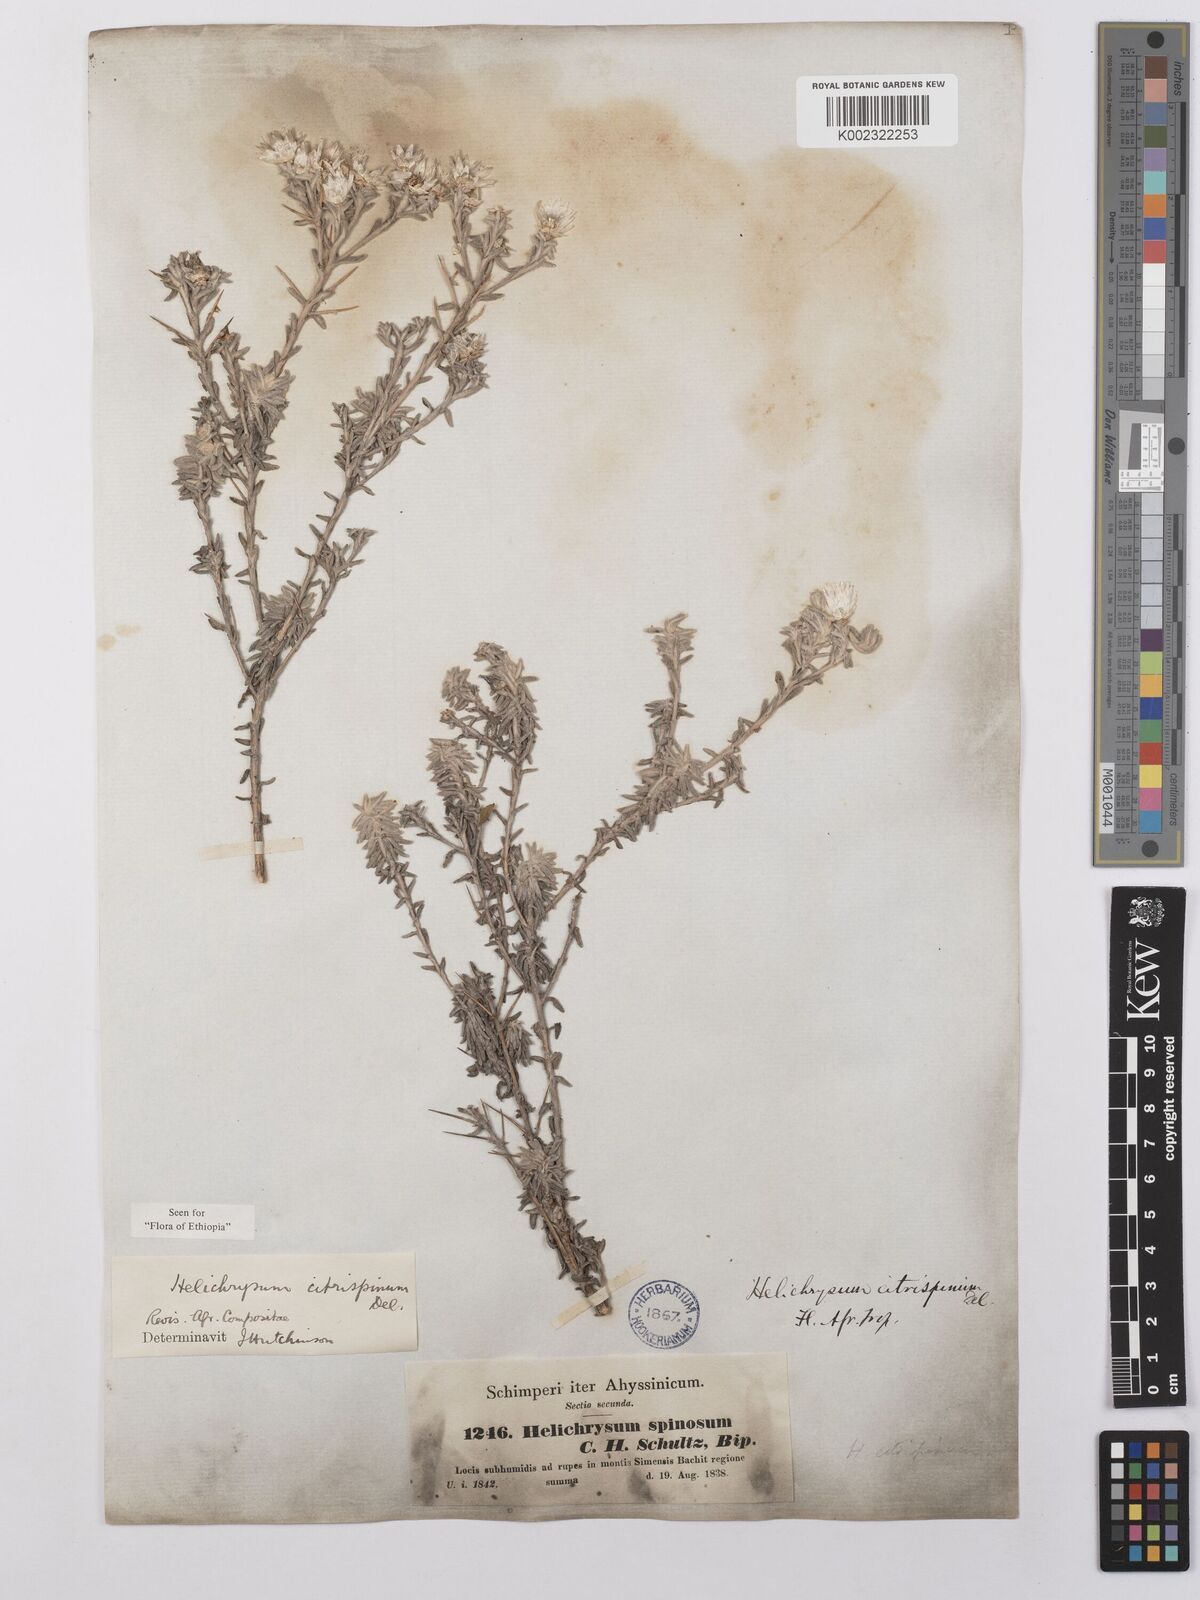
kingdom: Plantae
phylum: Tracheophyta
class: Magnoliopsida
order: Asterales
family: Asteraceae
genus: Helichrysum
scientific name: Helichrysum citrispinum
